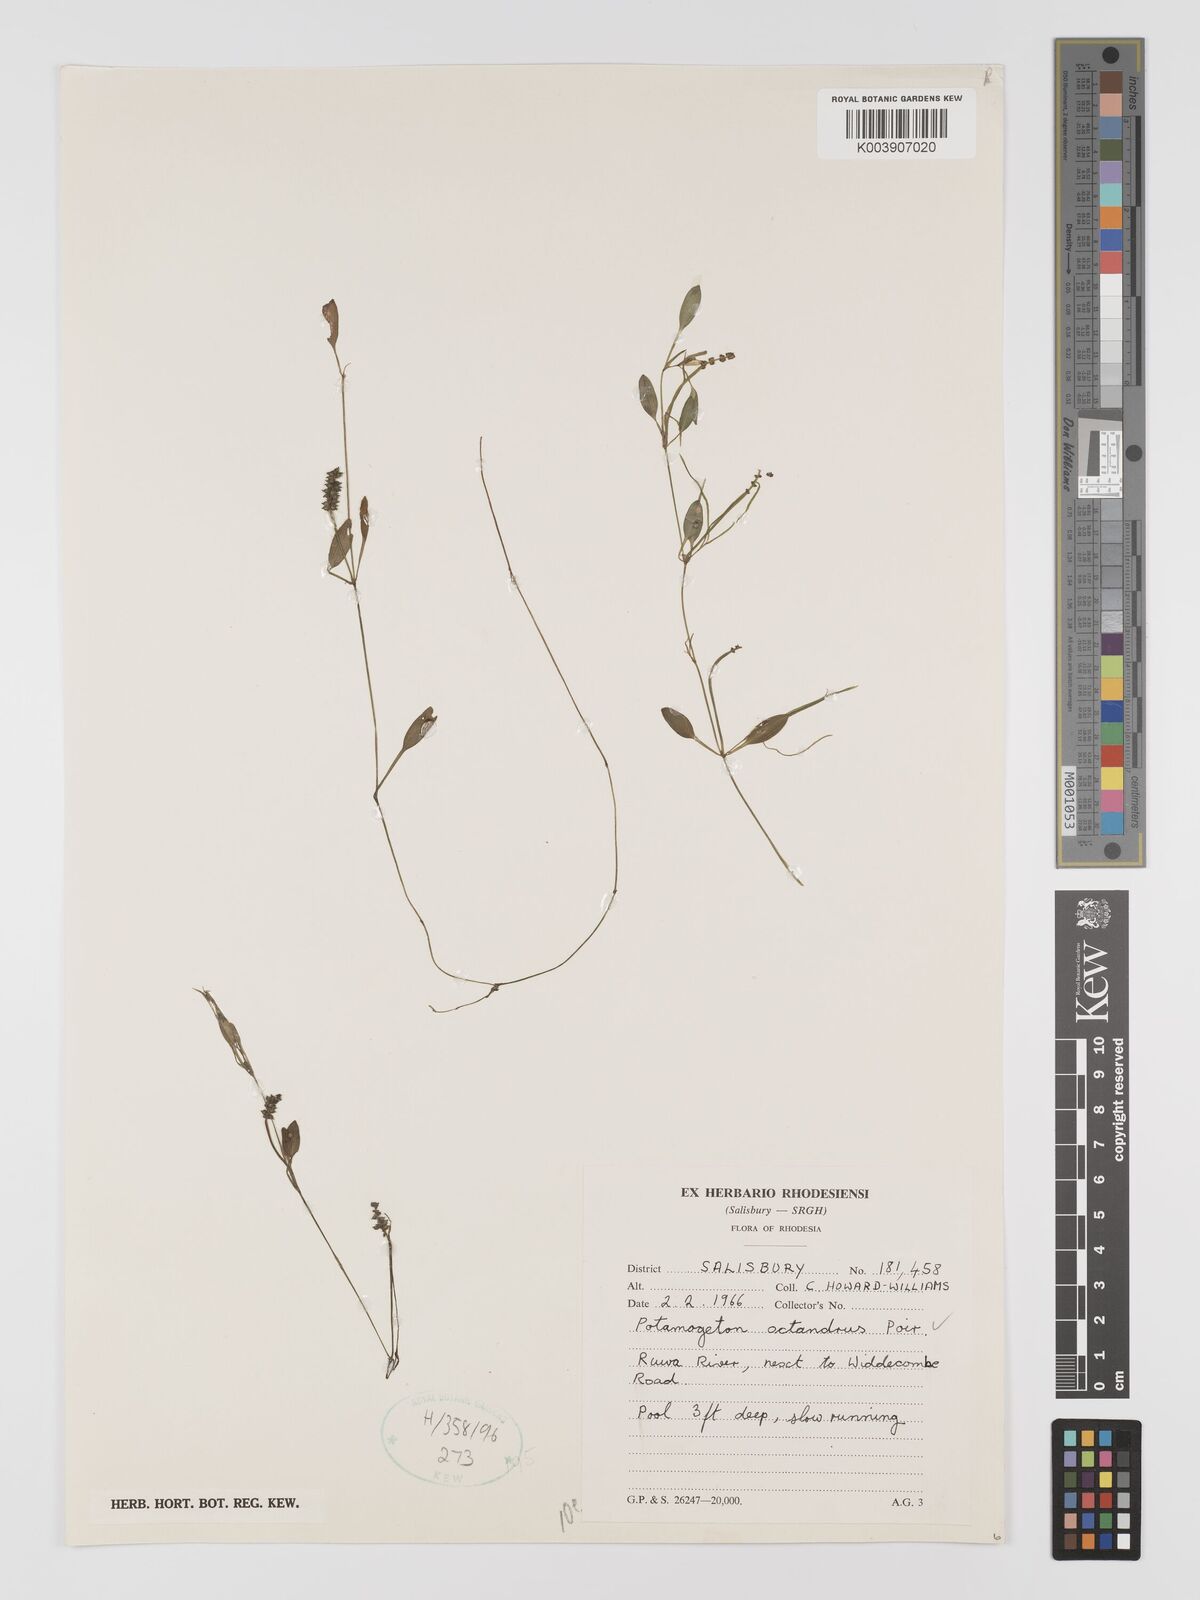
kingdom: Plantae
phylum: Tracheophyta
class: Liliopsida
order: Alismatales
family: Potamogetonaceae
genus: Potamogeton
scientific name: Potamogeton octandrus
